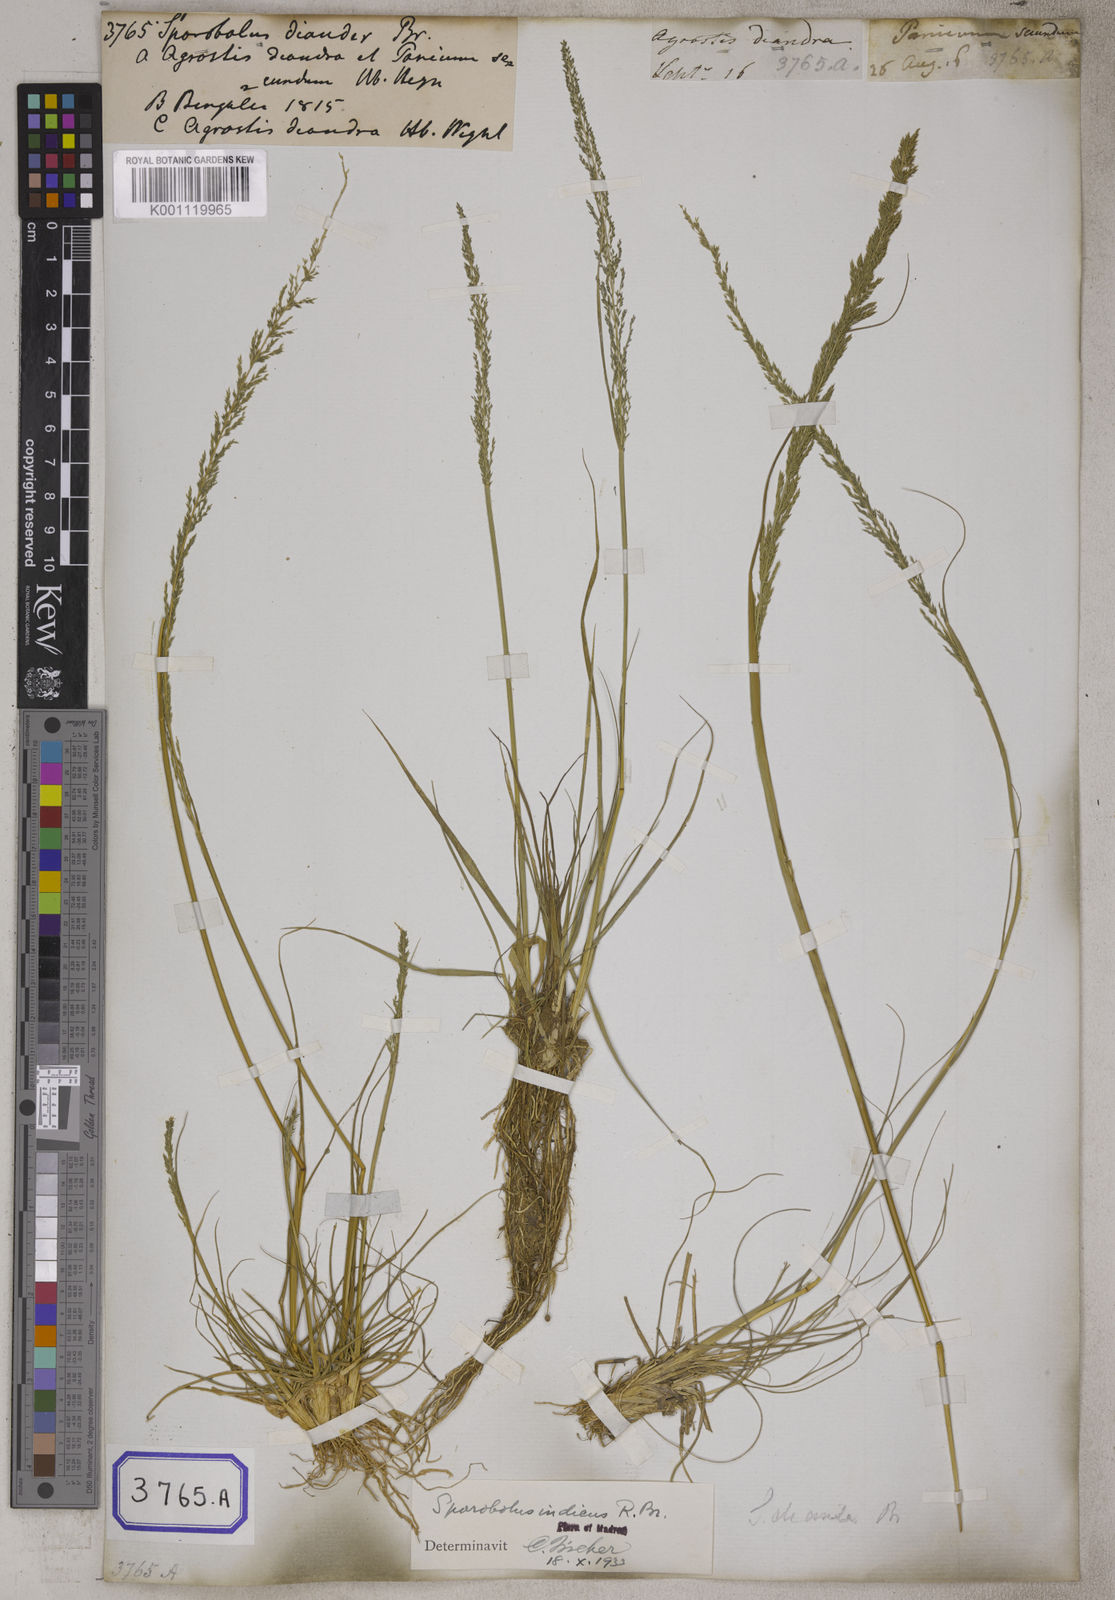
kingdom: Plantae
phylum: Tracheophyta
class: Liliopsida
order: Poales
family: Poaceae
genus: Sporobolus
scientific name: Sporobolus
